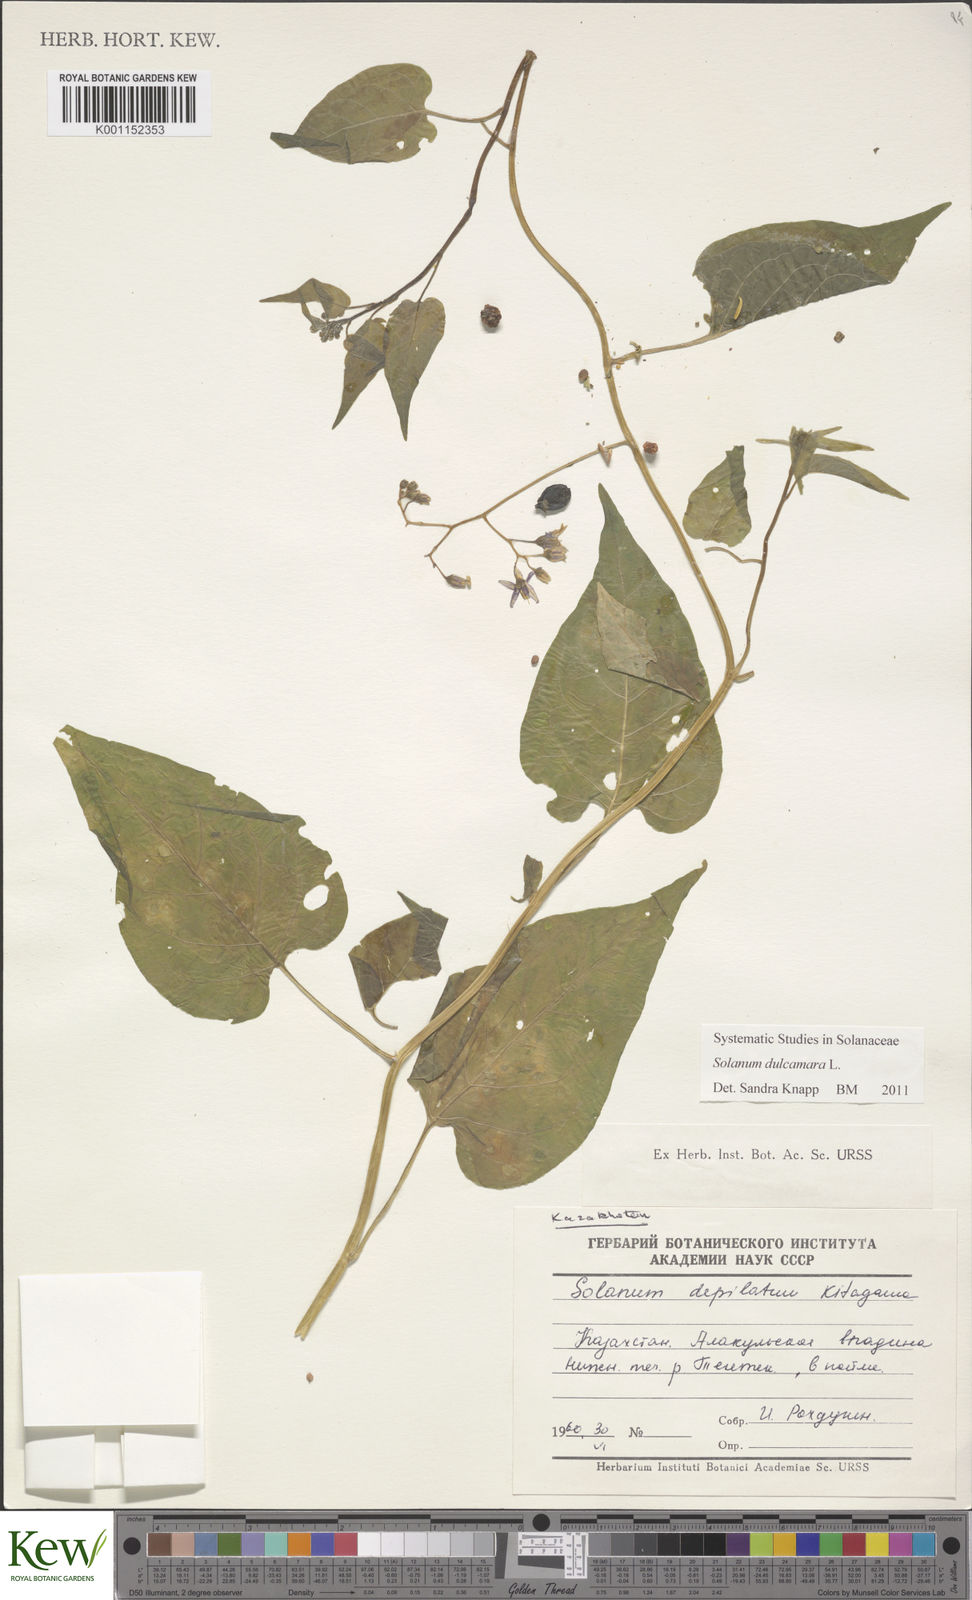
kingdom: Plantae
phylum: Tracheophyta
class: Magnoliopsida
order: Solanales
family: Solanaceae
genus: Solanum
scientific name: Solanum dulcamara
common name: Climbing nightshade
